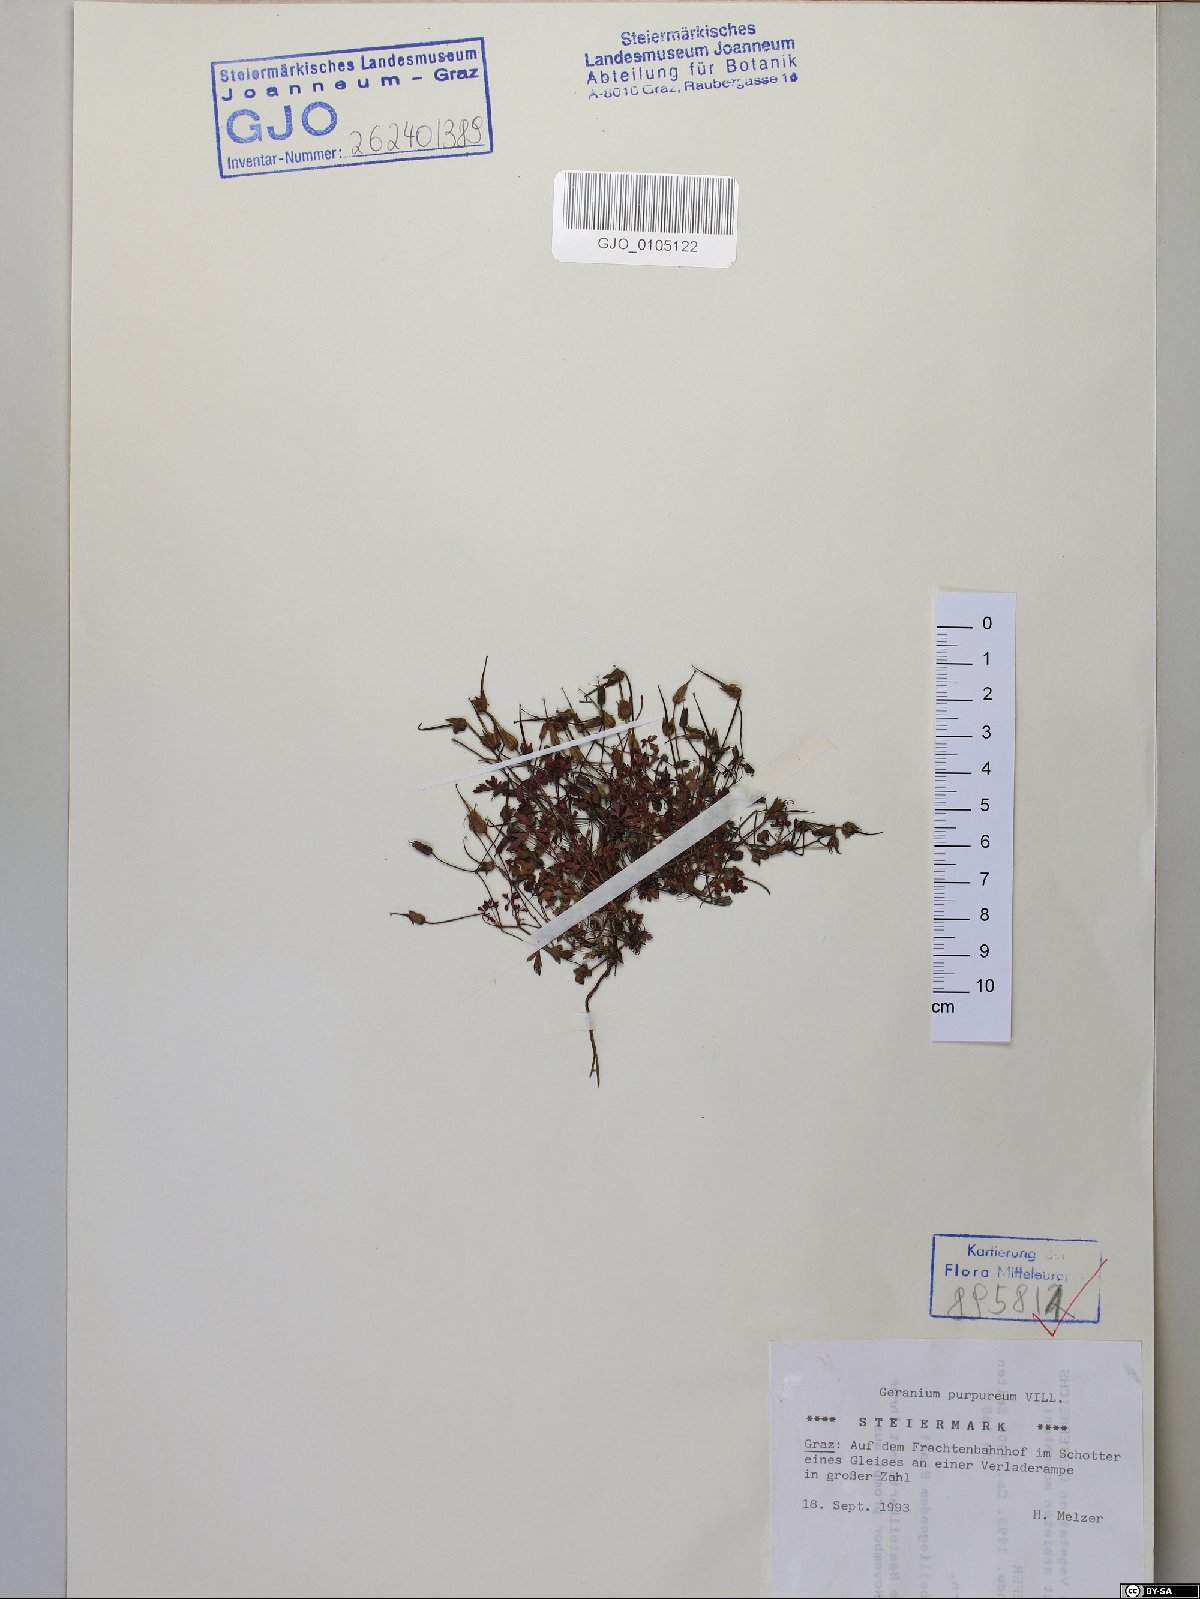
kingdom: Plantae
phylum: Tracheophyta
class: Magnoliopsida
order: Geraniales
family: Geraniaceae
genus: Geranium
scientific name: Geranium purpureum
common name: Little-robin
